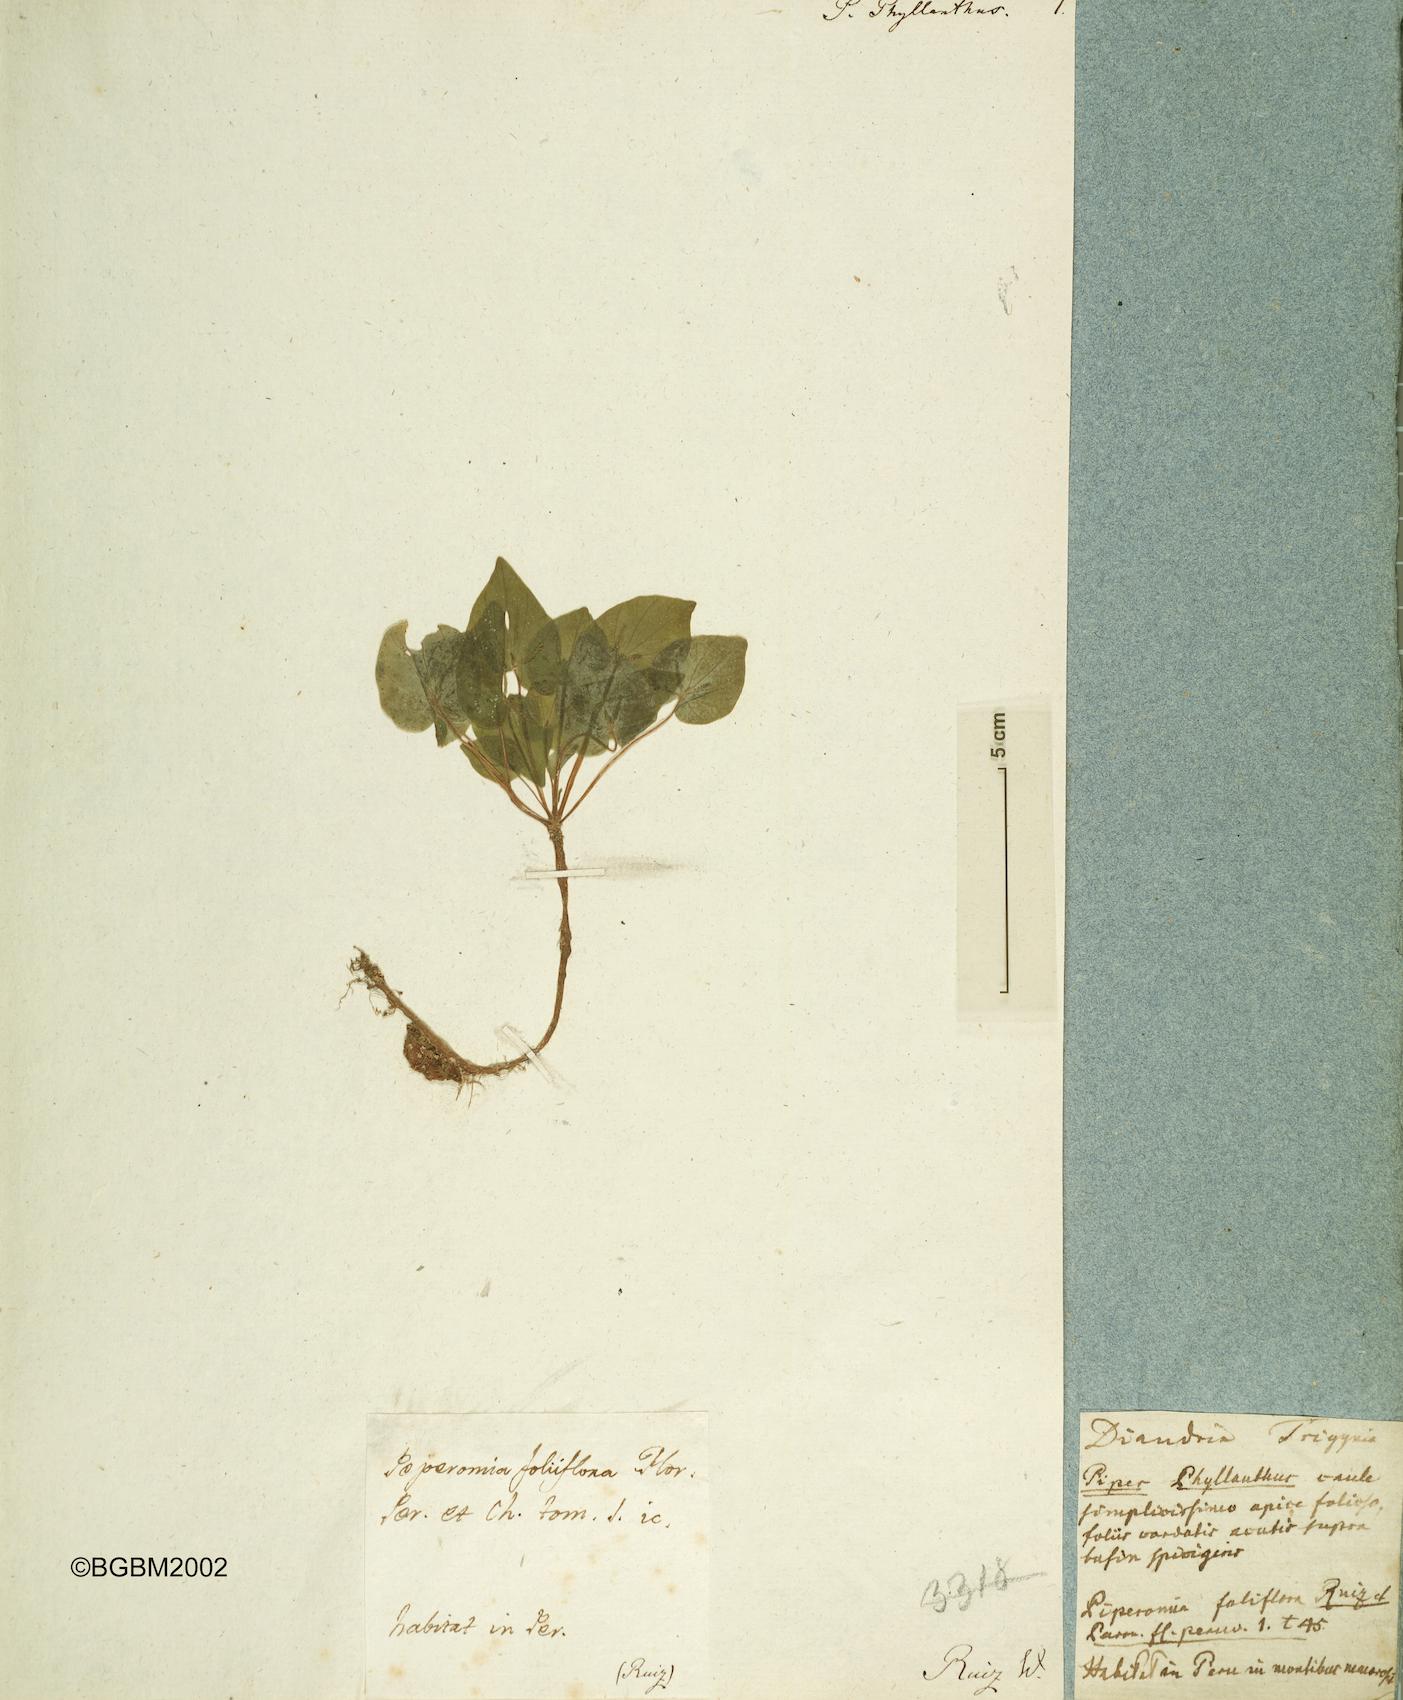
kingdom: Plantae
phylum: Tracheophyta
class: Magnoliopsida
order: Piperales
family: Piperaceae
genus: Peperomia
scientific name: Peperomia foliiflora
